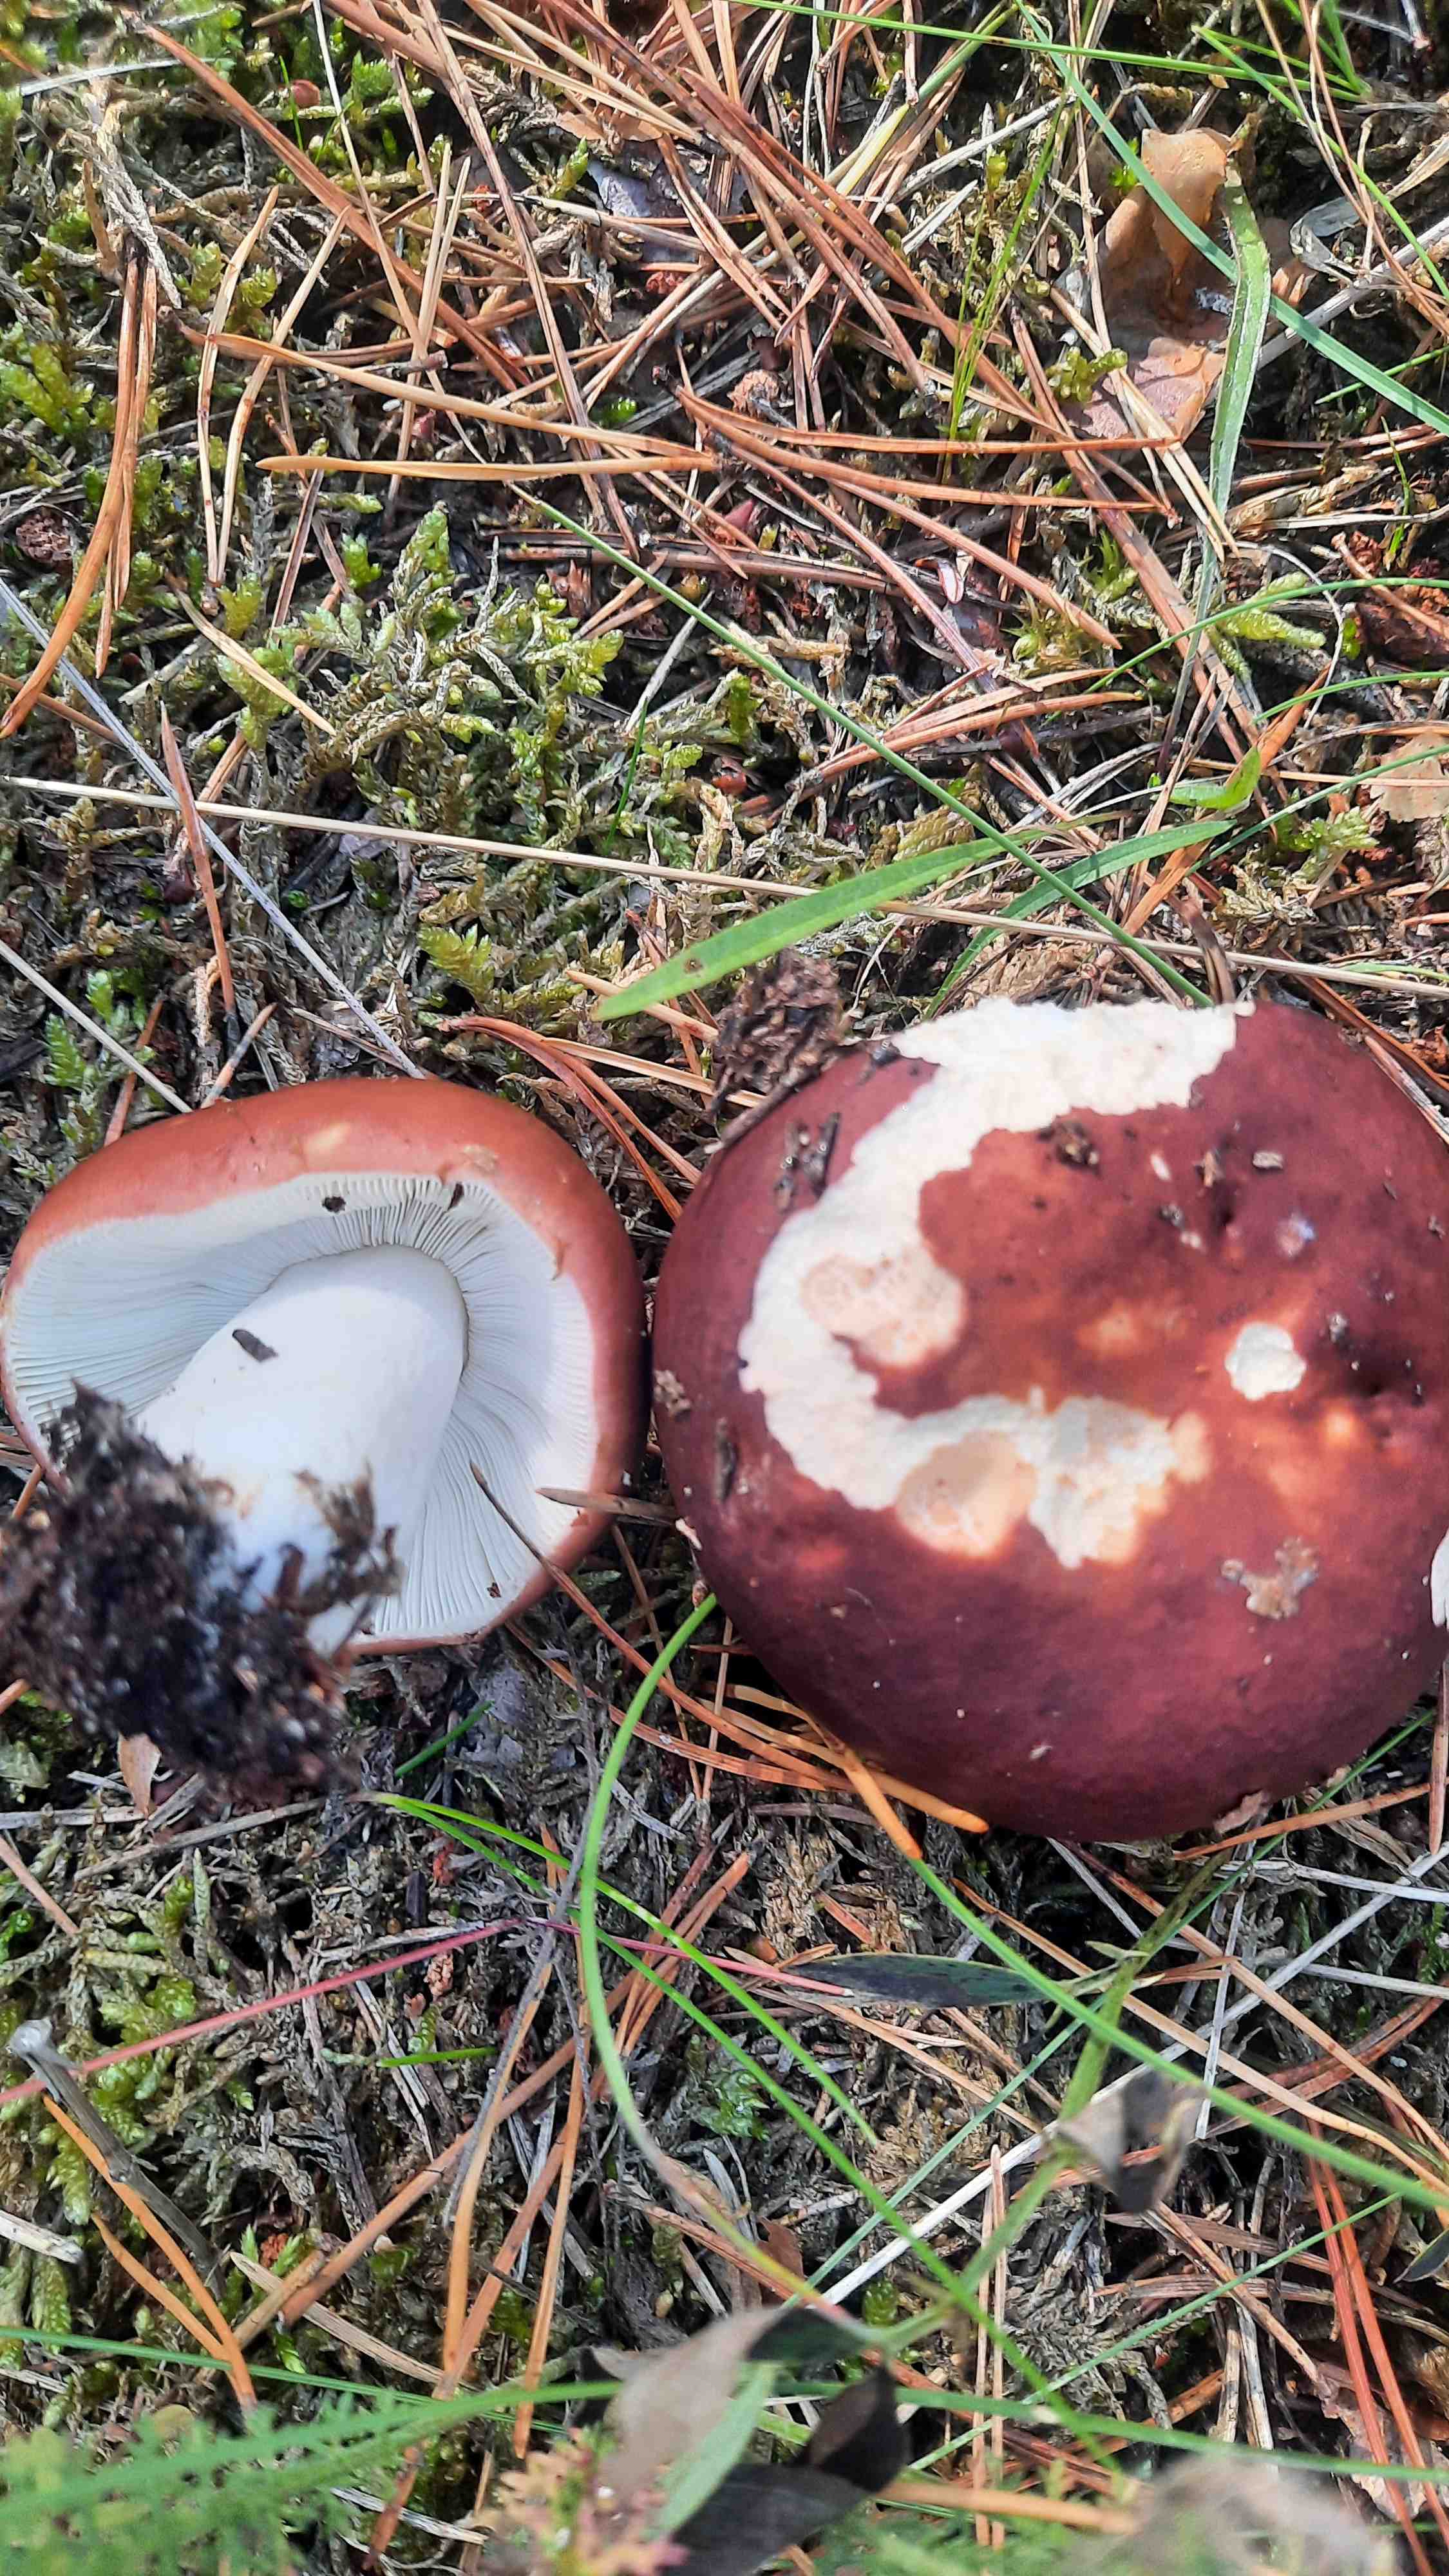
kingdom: Fungi
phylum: Basidiomycota
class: Agaricomycetes
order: Russulales
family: Russulaceae
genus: Russula
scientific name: Russula
